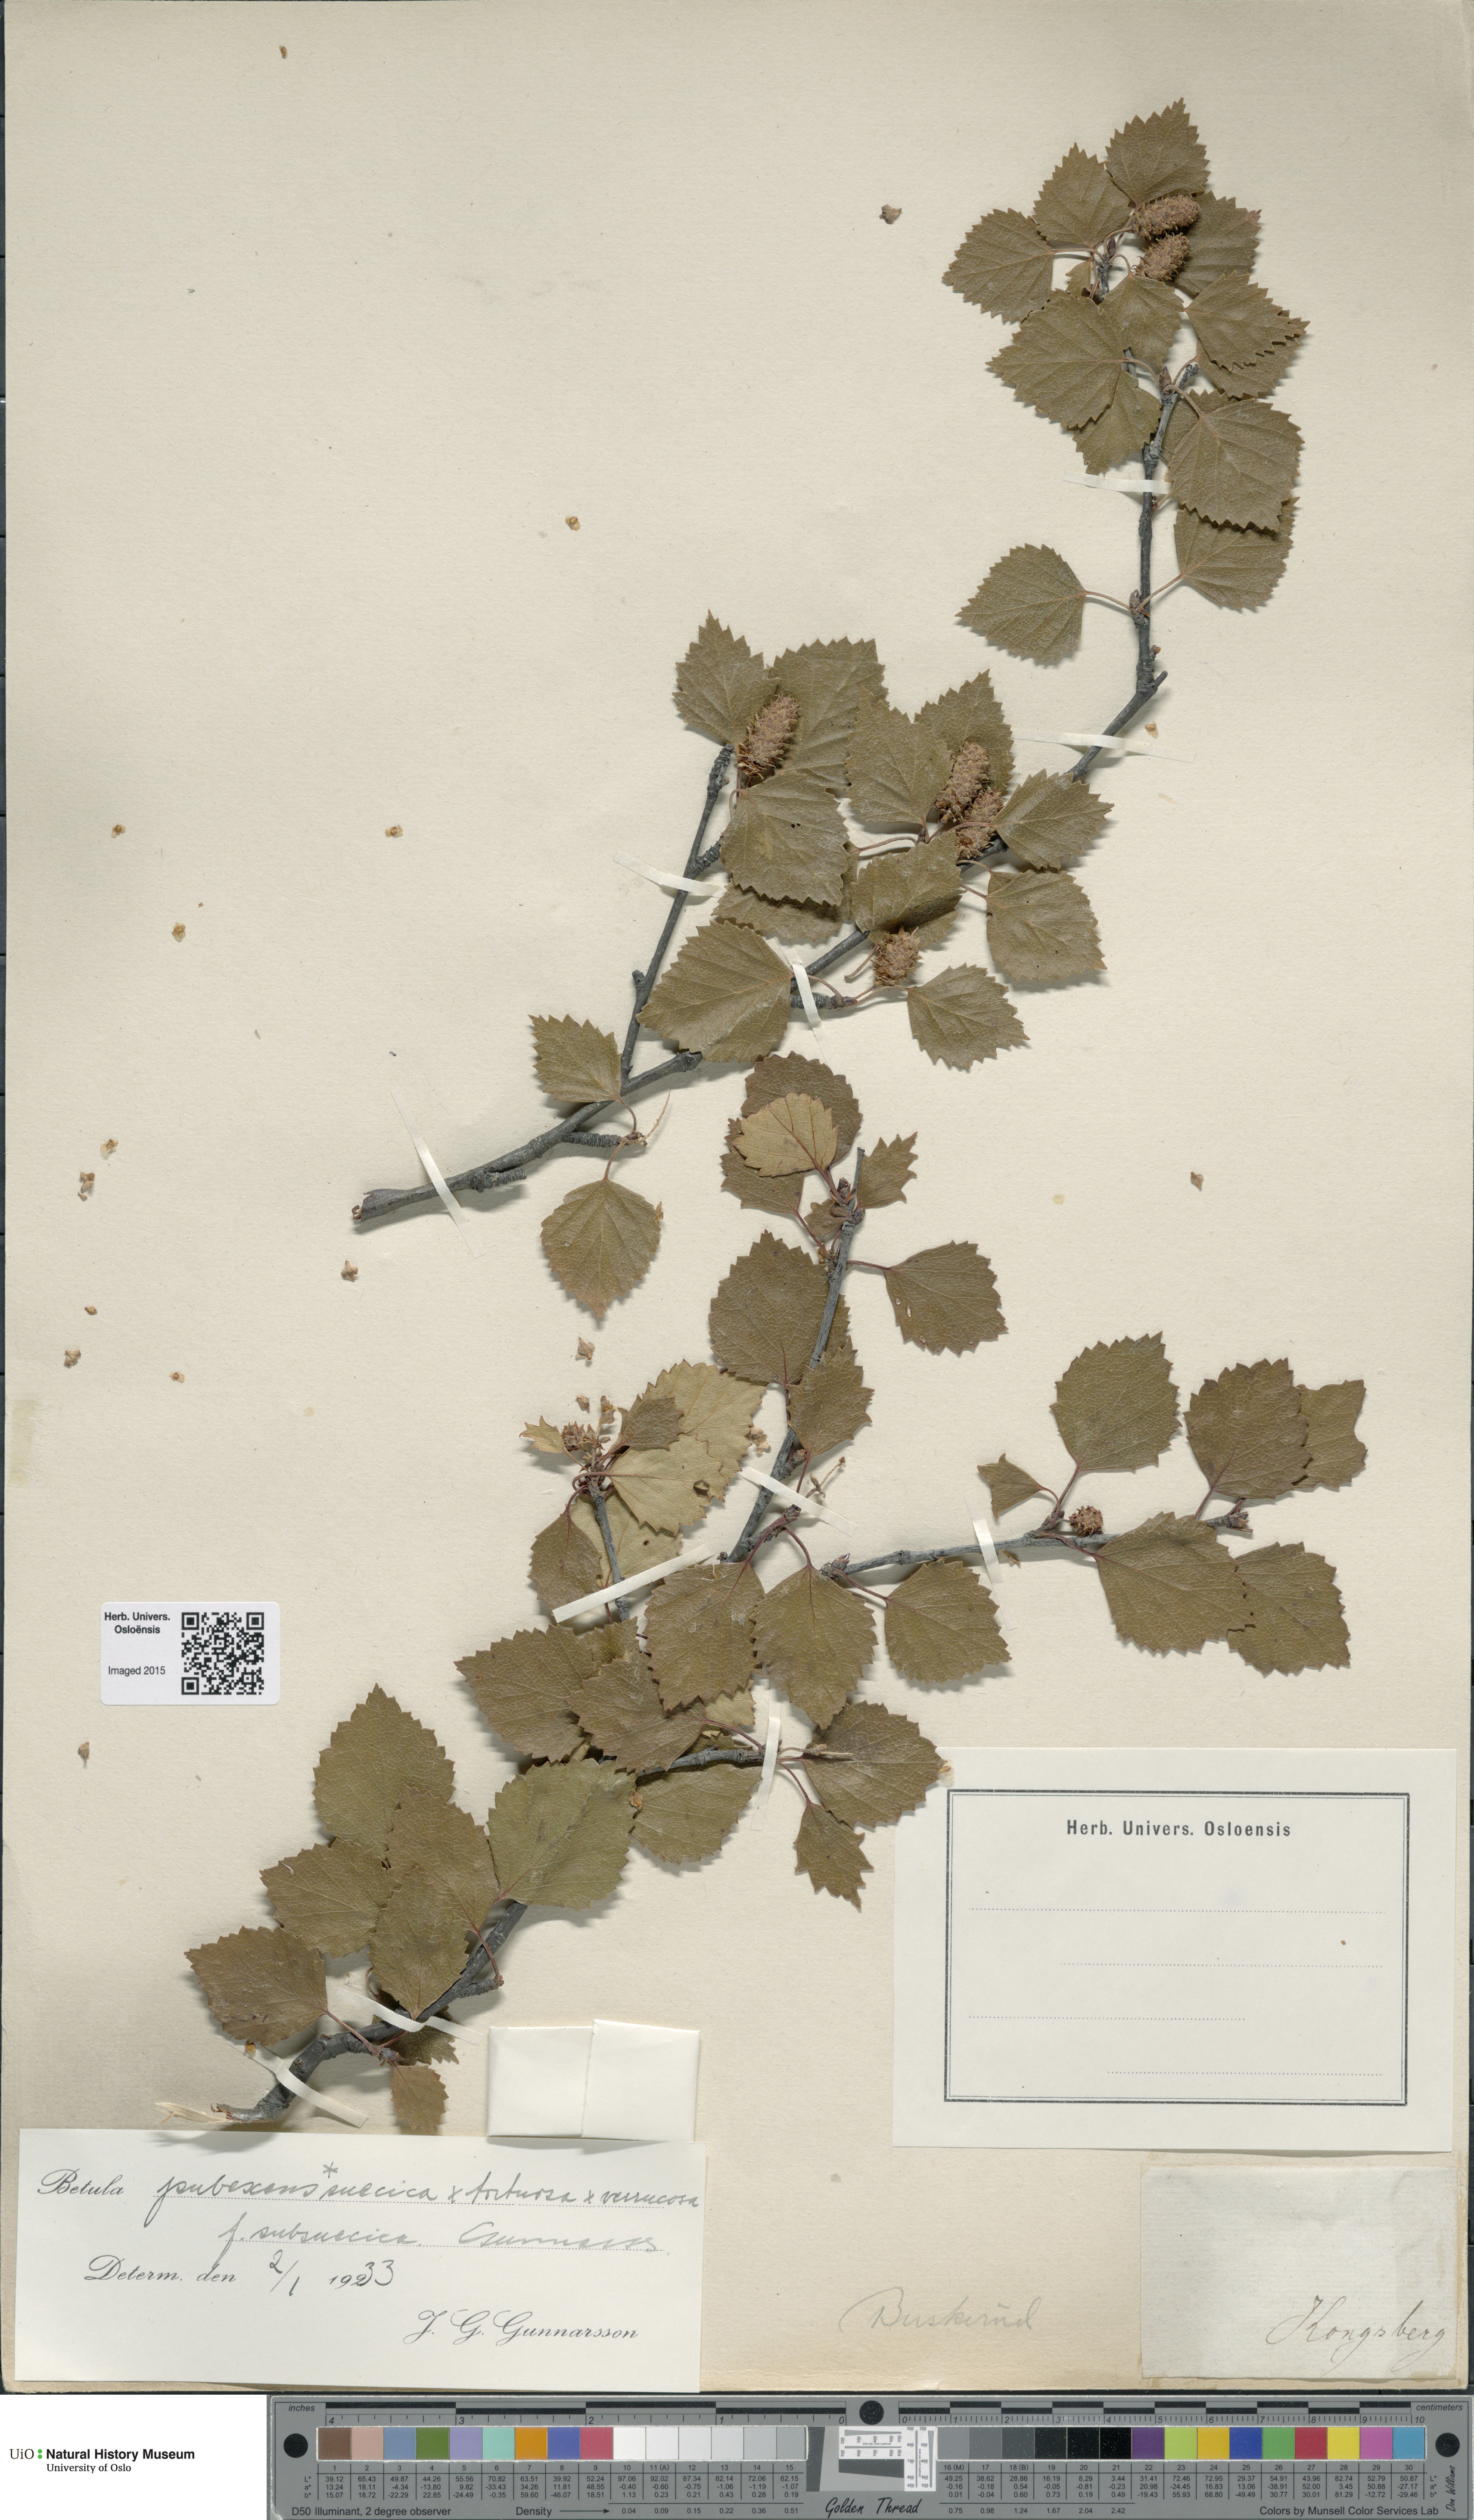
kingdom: Plantae
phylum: Tracheophyta
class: Magnoliopsida
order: Fagales
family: Betulaceae
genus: Betula
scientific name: Betula pubescens
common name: Downy birch
